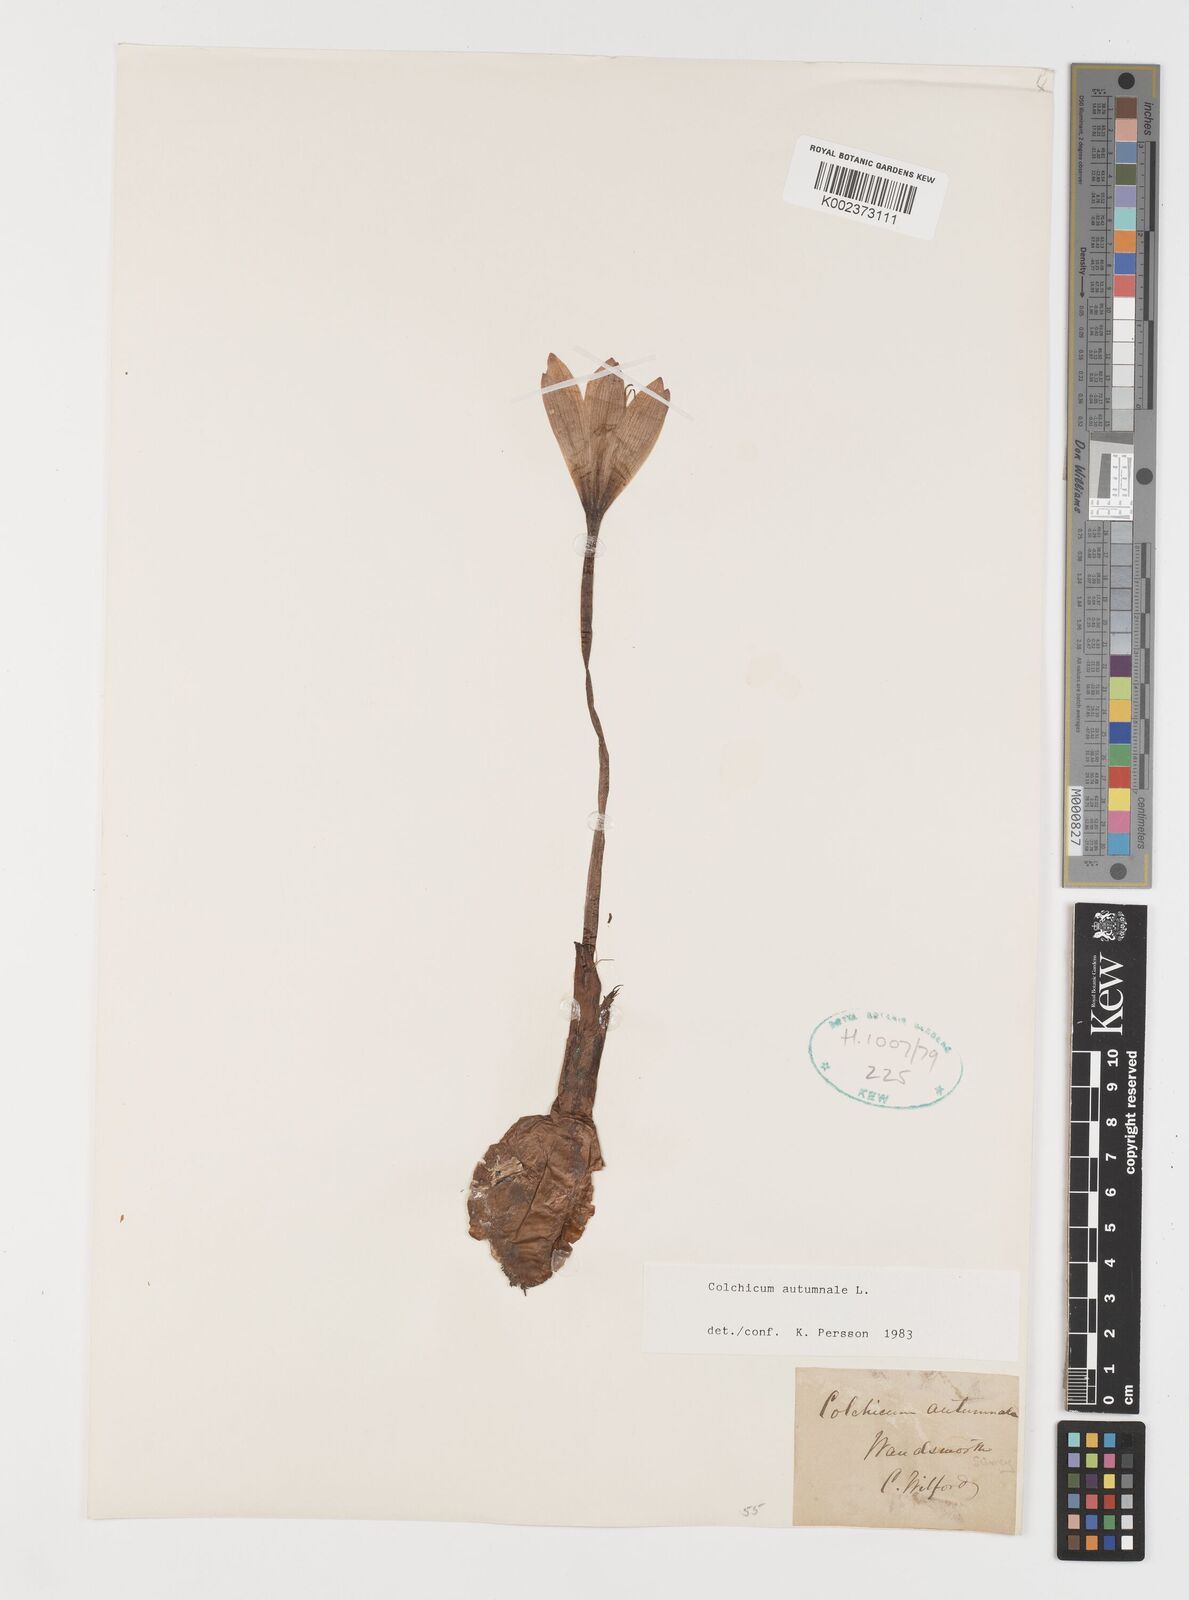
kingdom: Plantae
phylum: Tracheophyta
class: Liliopsida
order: Liliales
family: Colchicaceae
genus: Colchicum
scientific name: Colchicum autumnale
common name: Autumn crocus
